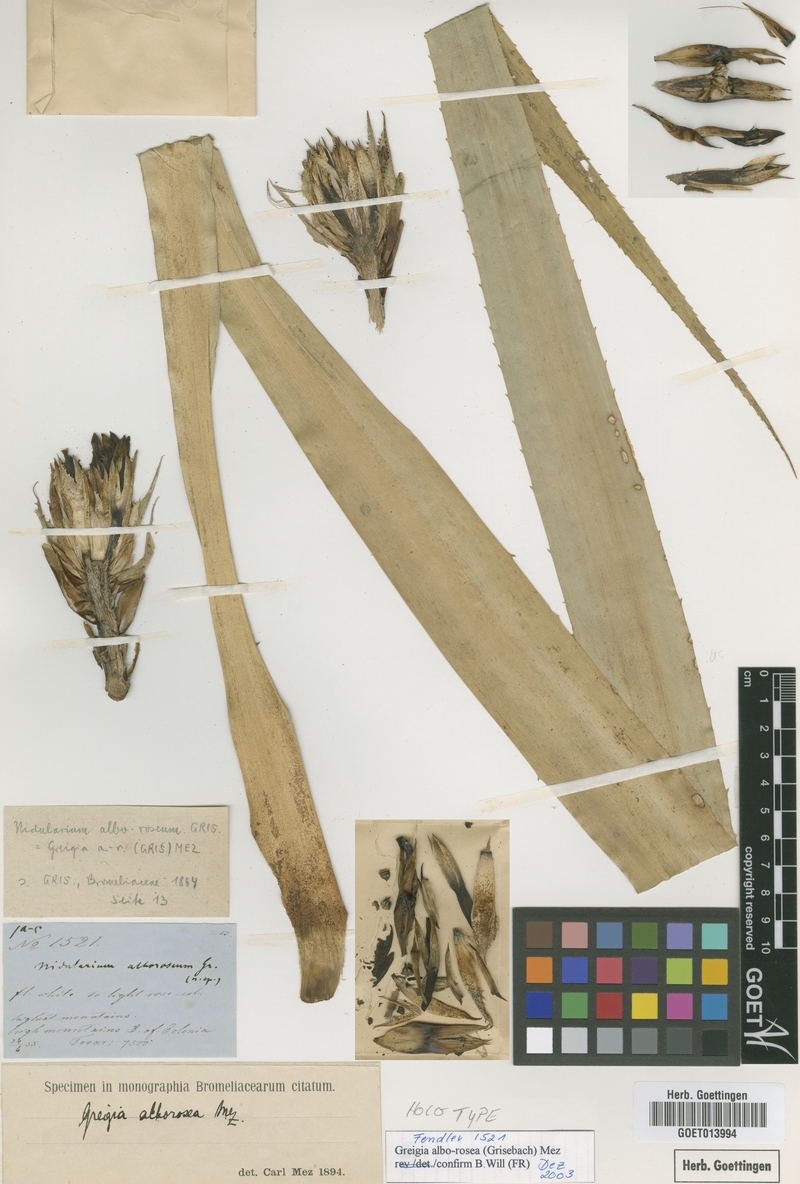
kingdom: Plantae
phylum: Tracheophyta
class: Liliopsida
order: Poales
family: Bromeliaceae
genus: Greigia
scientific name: Greigia alborosea
